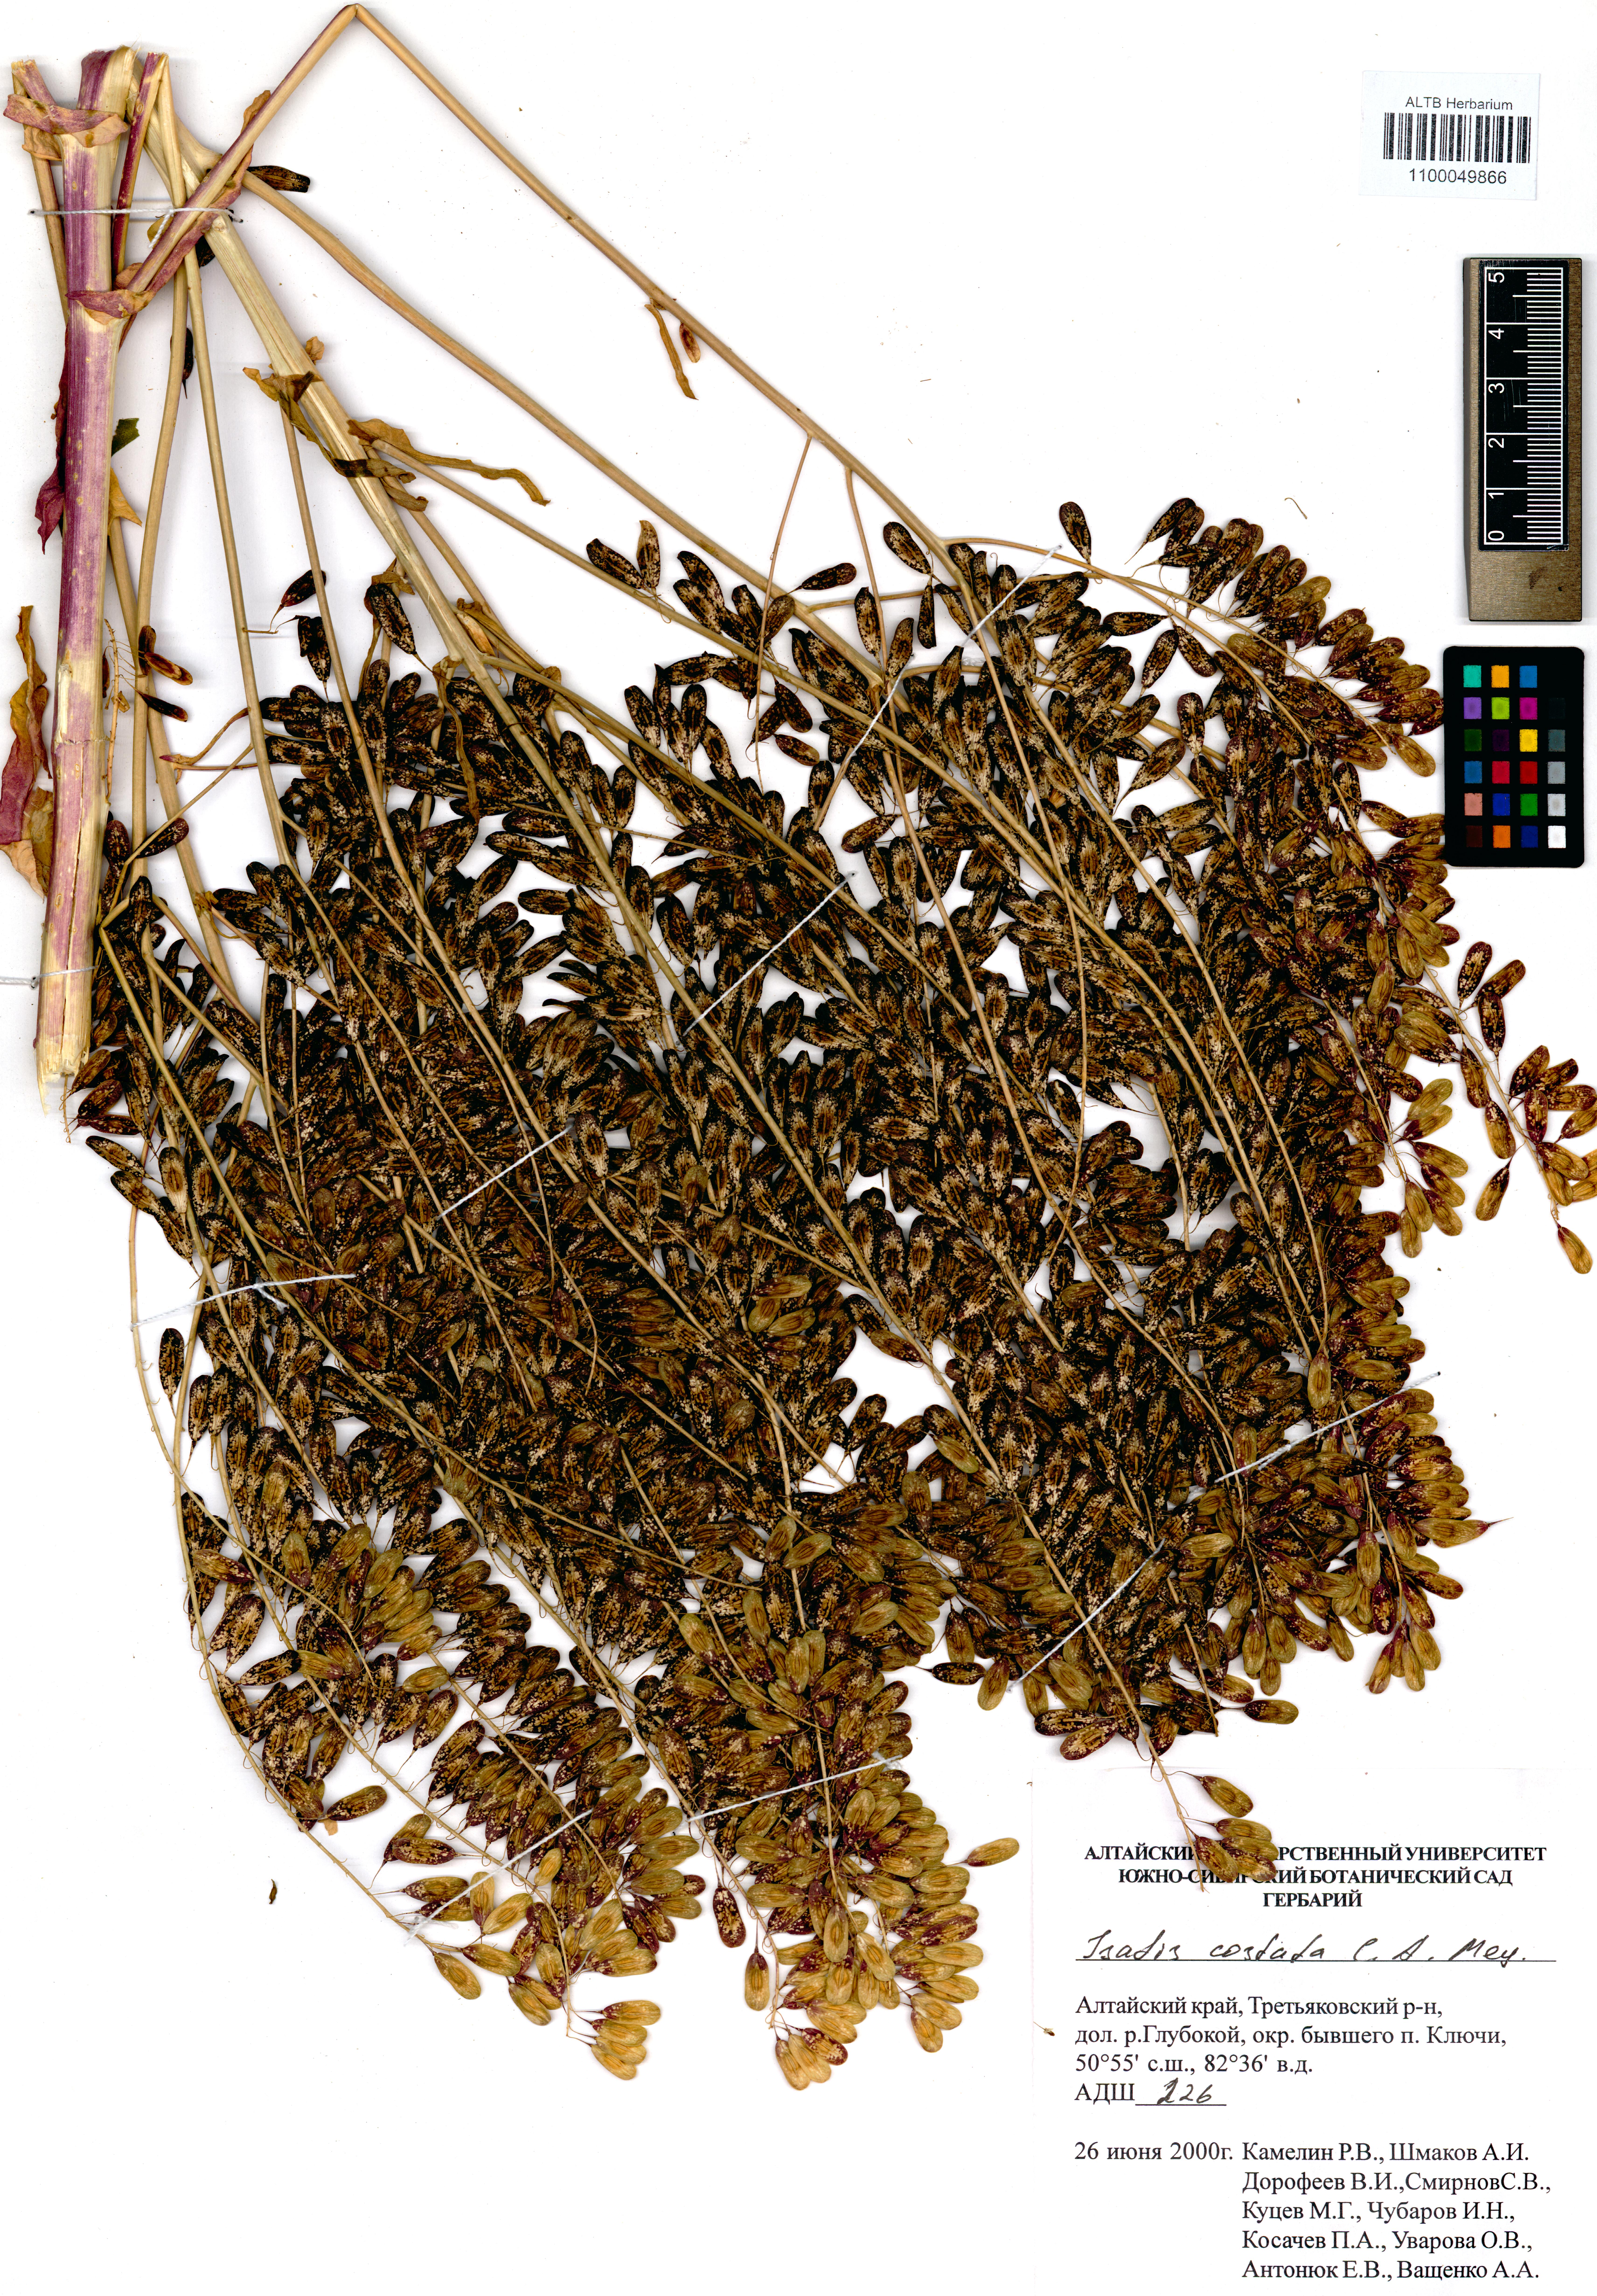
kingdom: Plantae
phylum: Tracheophyta
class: Magnoliopsida
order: Brassicales
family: Brassicaceae
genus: Isatis
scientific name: Isatis costata
